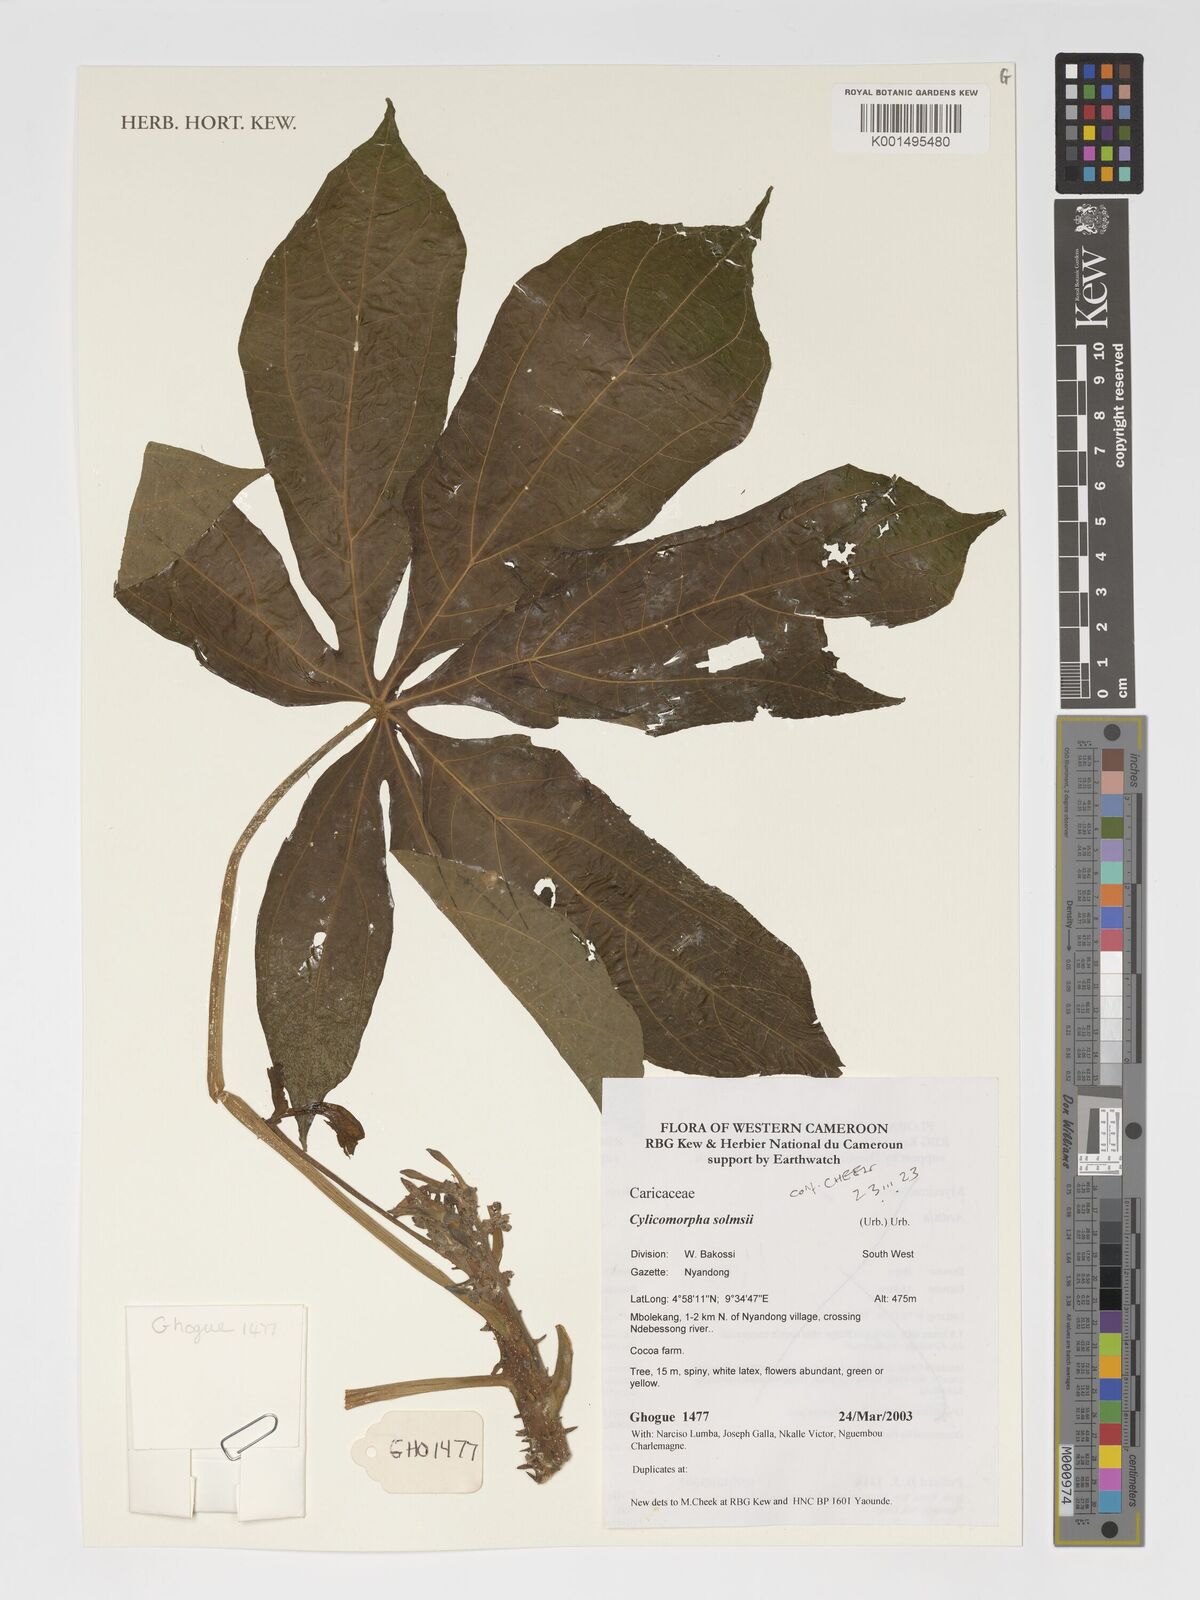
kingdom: Plantae
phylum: Tracheophyta
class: Magnoliopsida
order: Brassicales
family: Caricaceae
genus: Cylicomorpha
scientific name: Cylicomorpha solmsii
